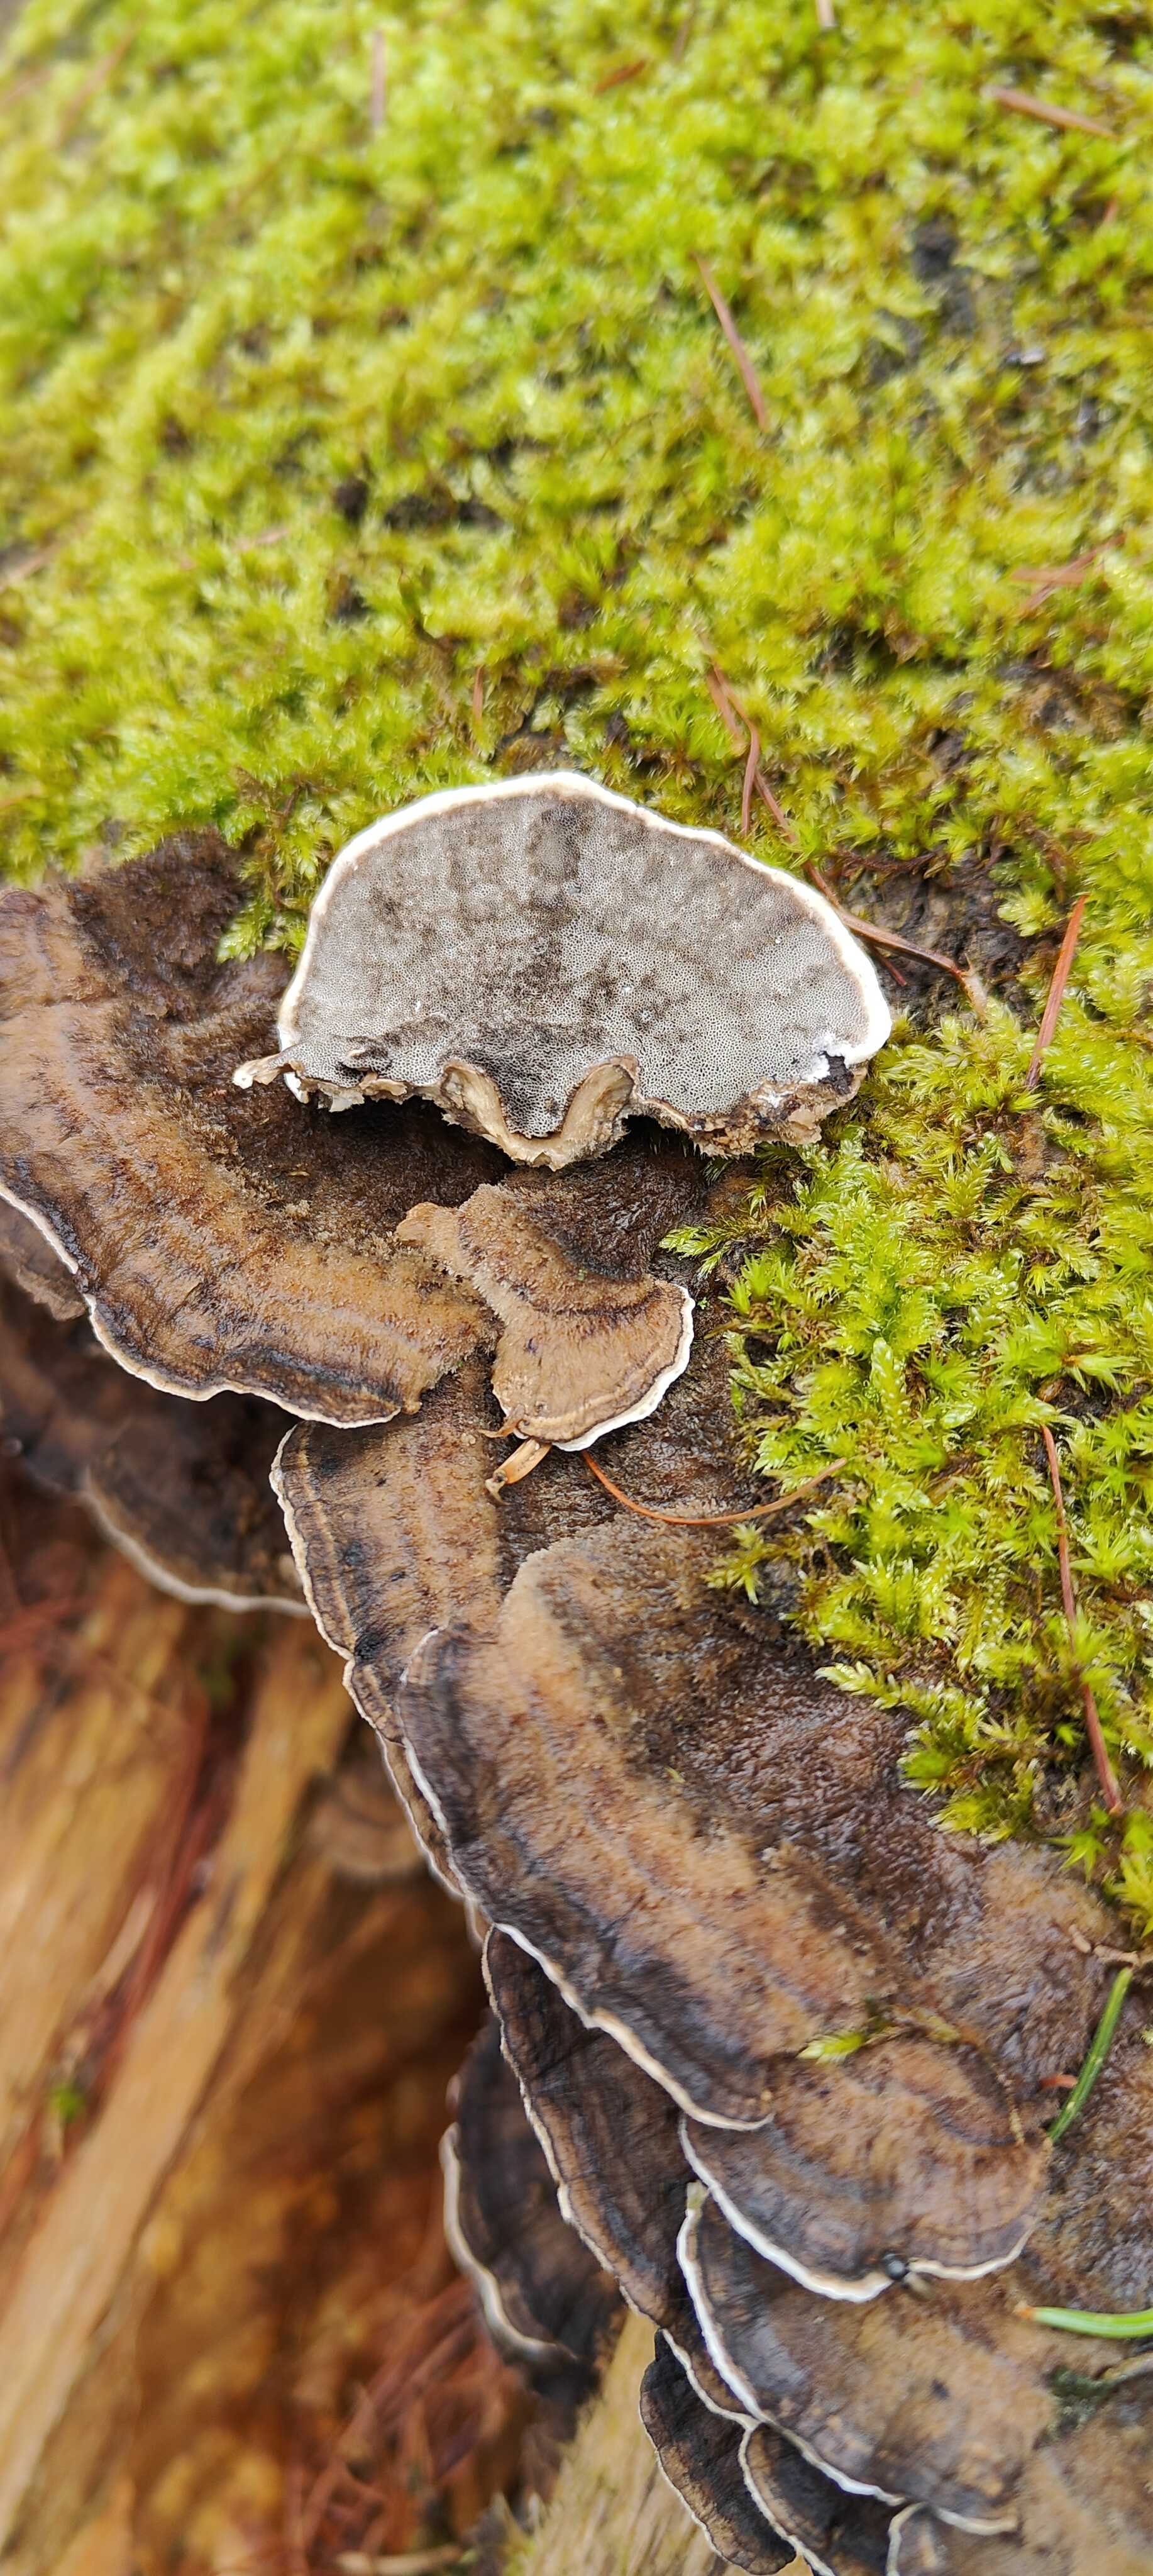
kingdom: Fungi
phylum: Basidiomycota
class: Agaricomycetes
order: Polyporales
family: Phanerochaetaceae
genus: Bjerkandera
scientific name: Bjerkandera adusta
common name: sveden sodporesvamp
